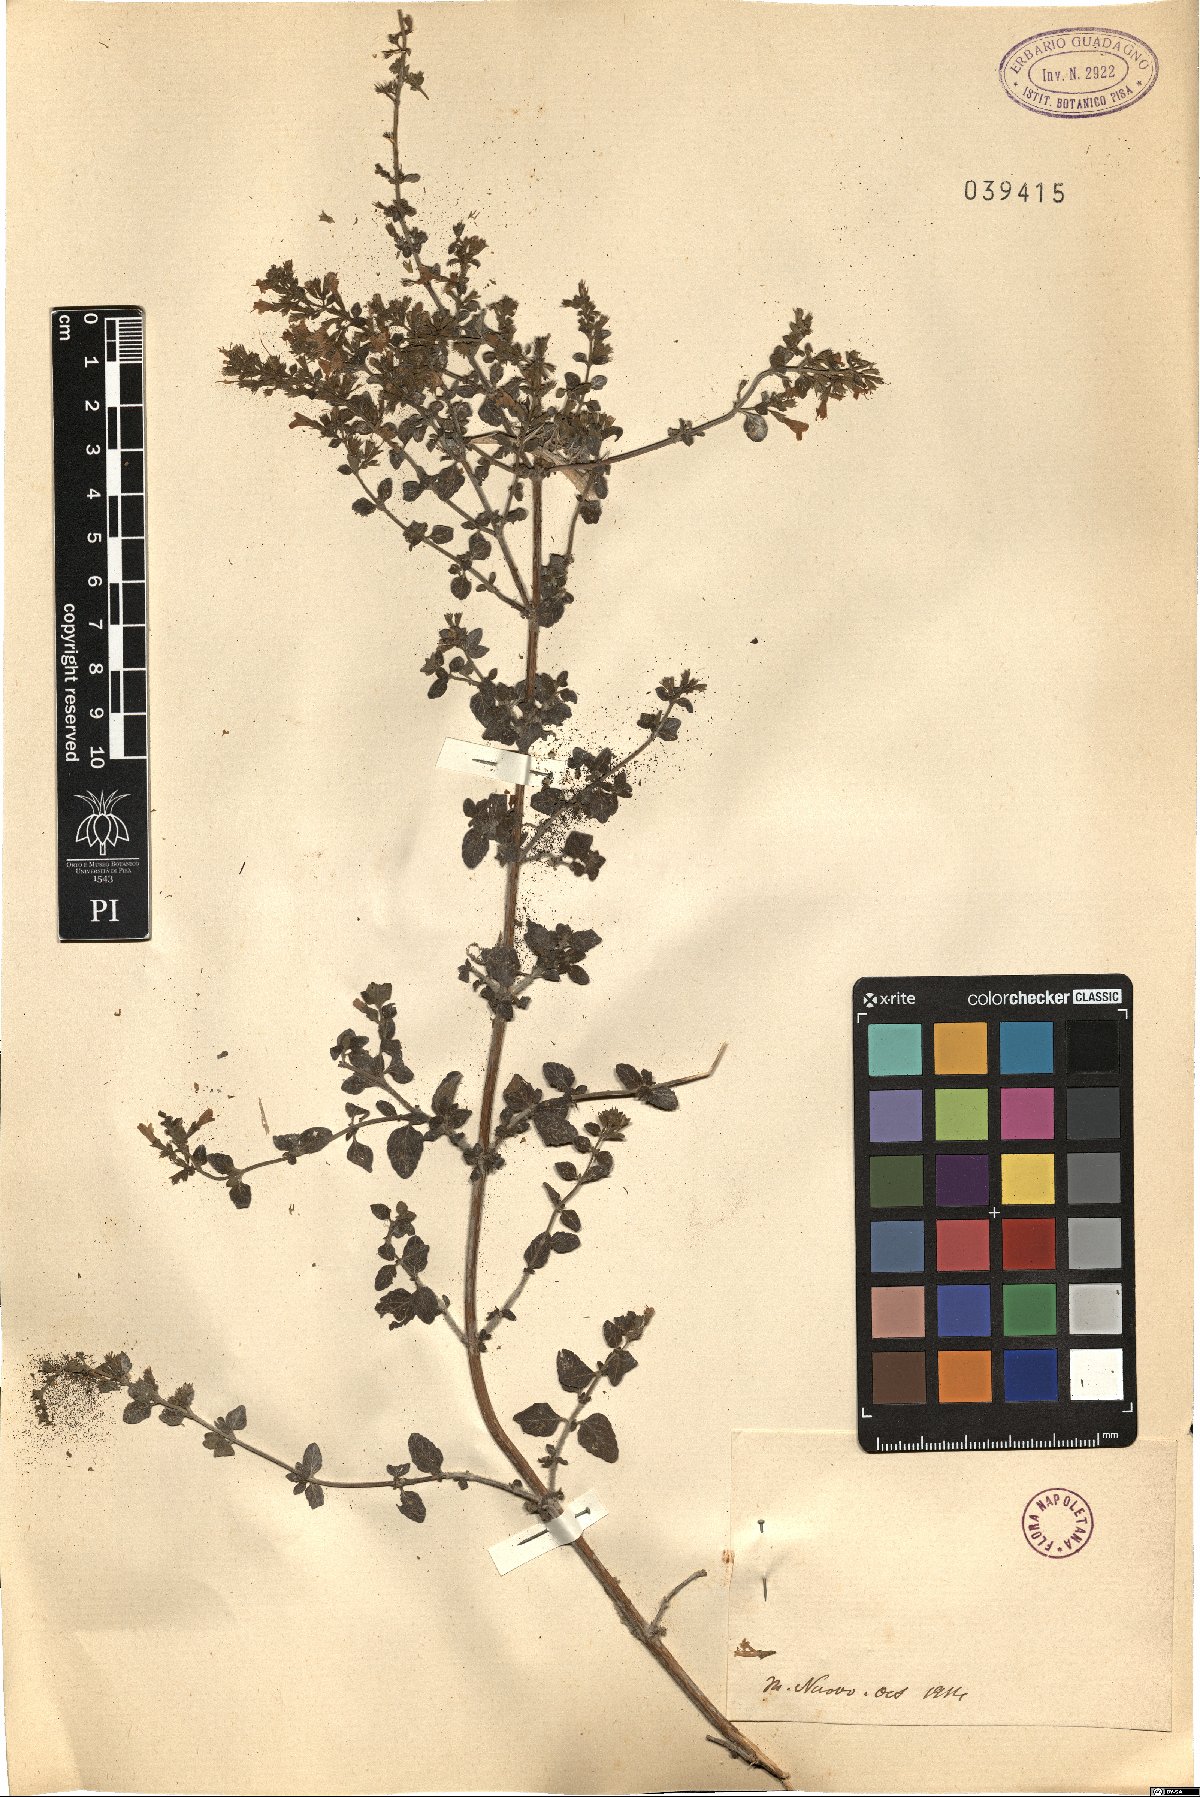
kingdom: Plantae
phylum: Tracheophyta
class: Magnoliopsida
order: Lamiales
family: Lamiaceae
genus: Calamintha
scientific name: Calamintha
